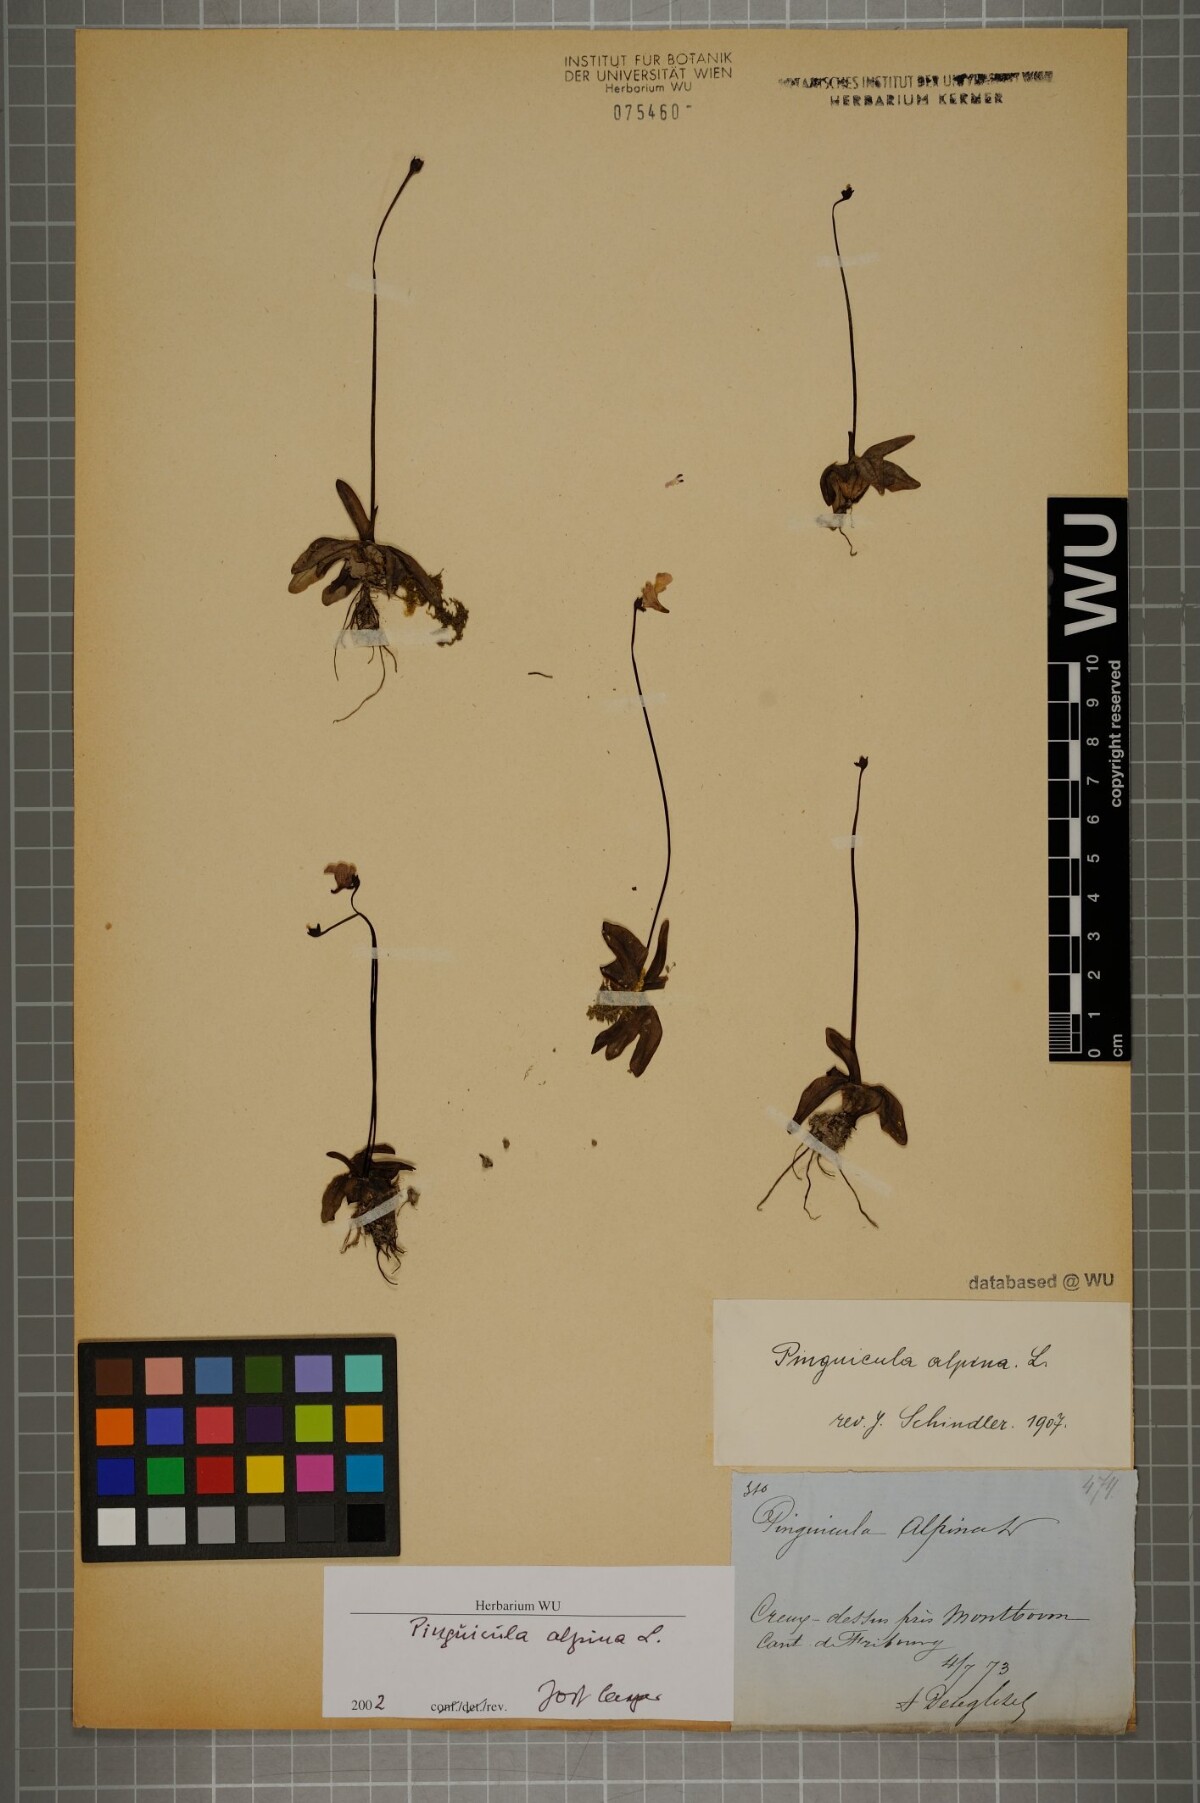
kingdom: Plantae
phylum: Tracheophyta
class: Magnoliopsida
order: Lamiales
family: Lentibulariaceae
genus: Pinguicula
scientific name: Pinguicula alpina
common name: Alpine butterwort
